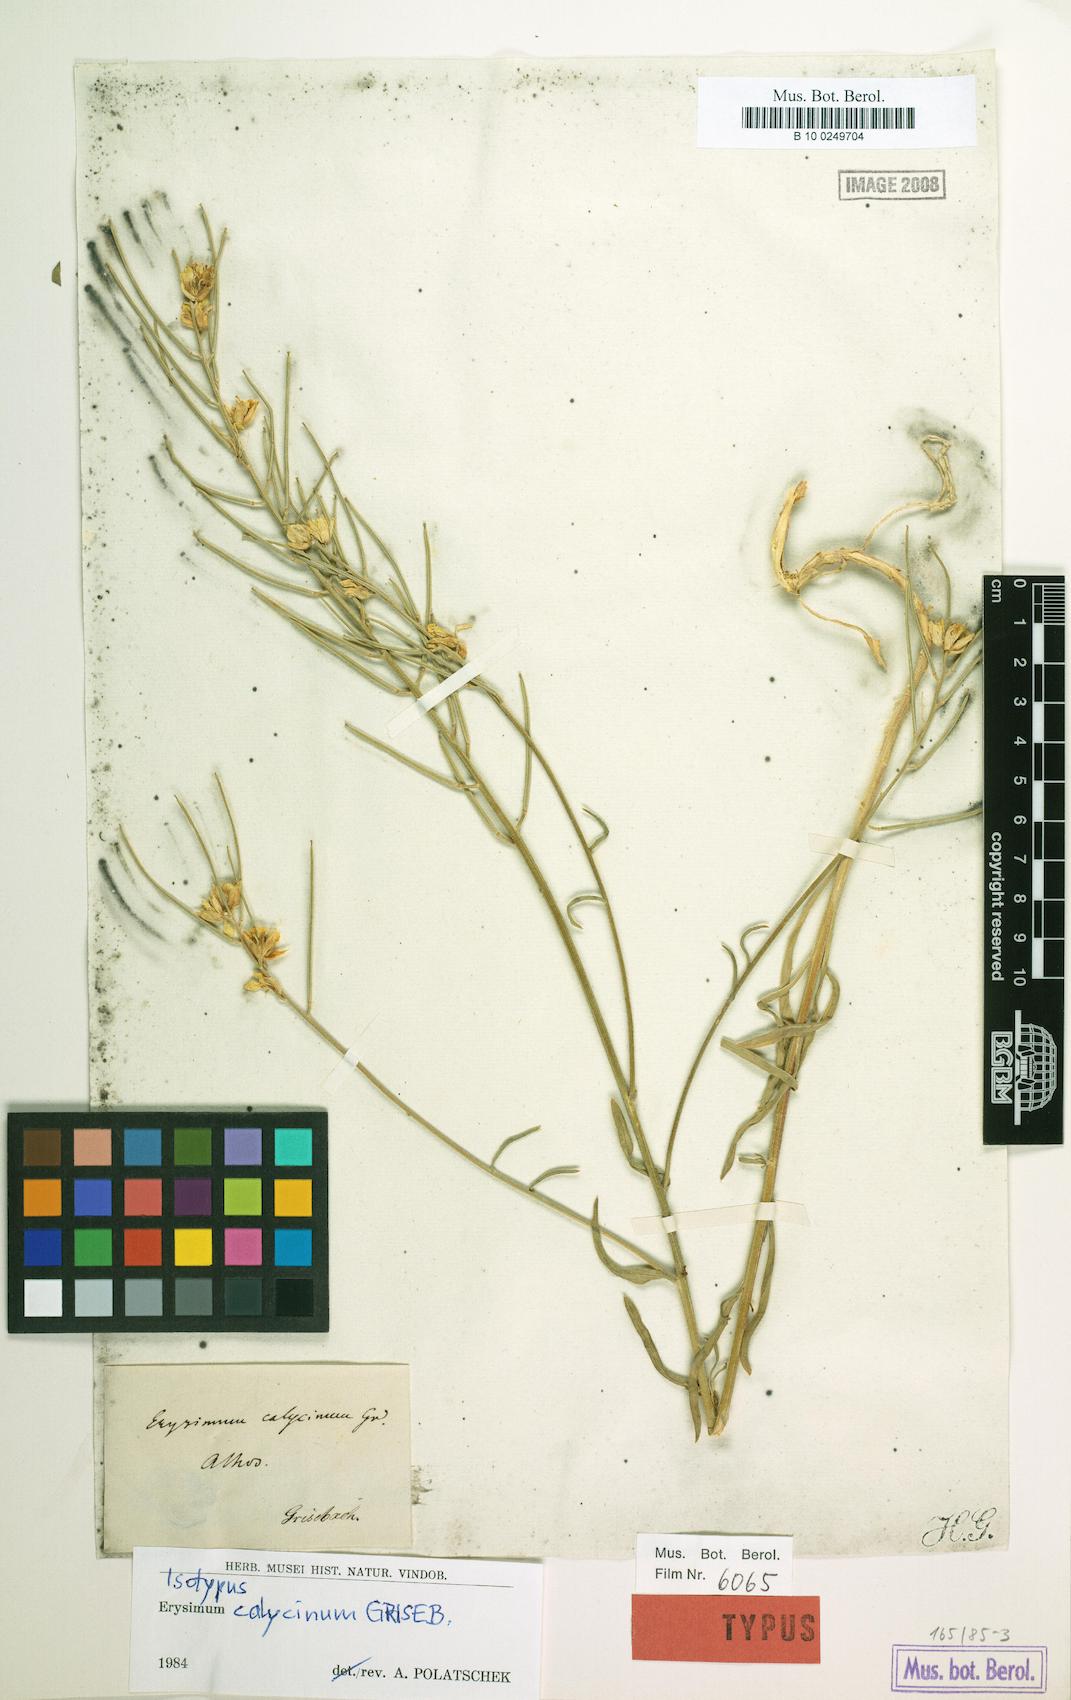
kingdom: Plantae
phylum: Tracheophyta
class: Magnoliopsida
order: Brassicales
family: Brassicaceae
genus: Erysimum
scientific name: Erysimum calycinum
